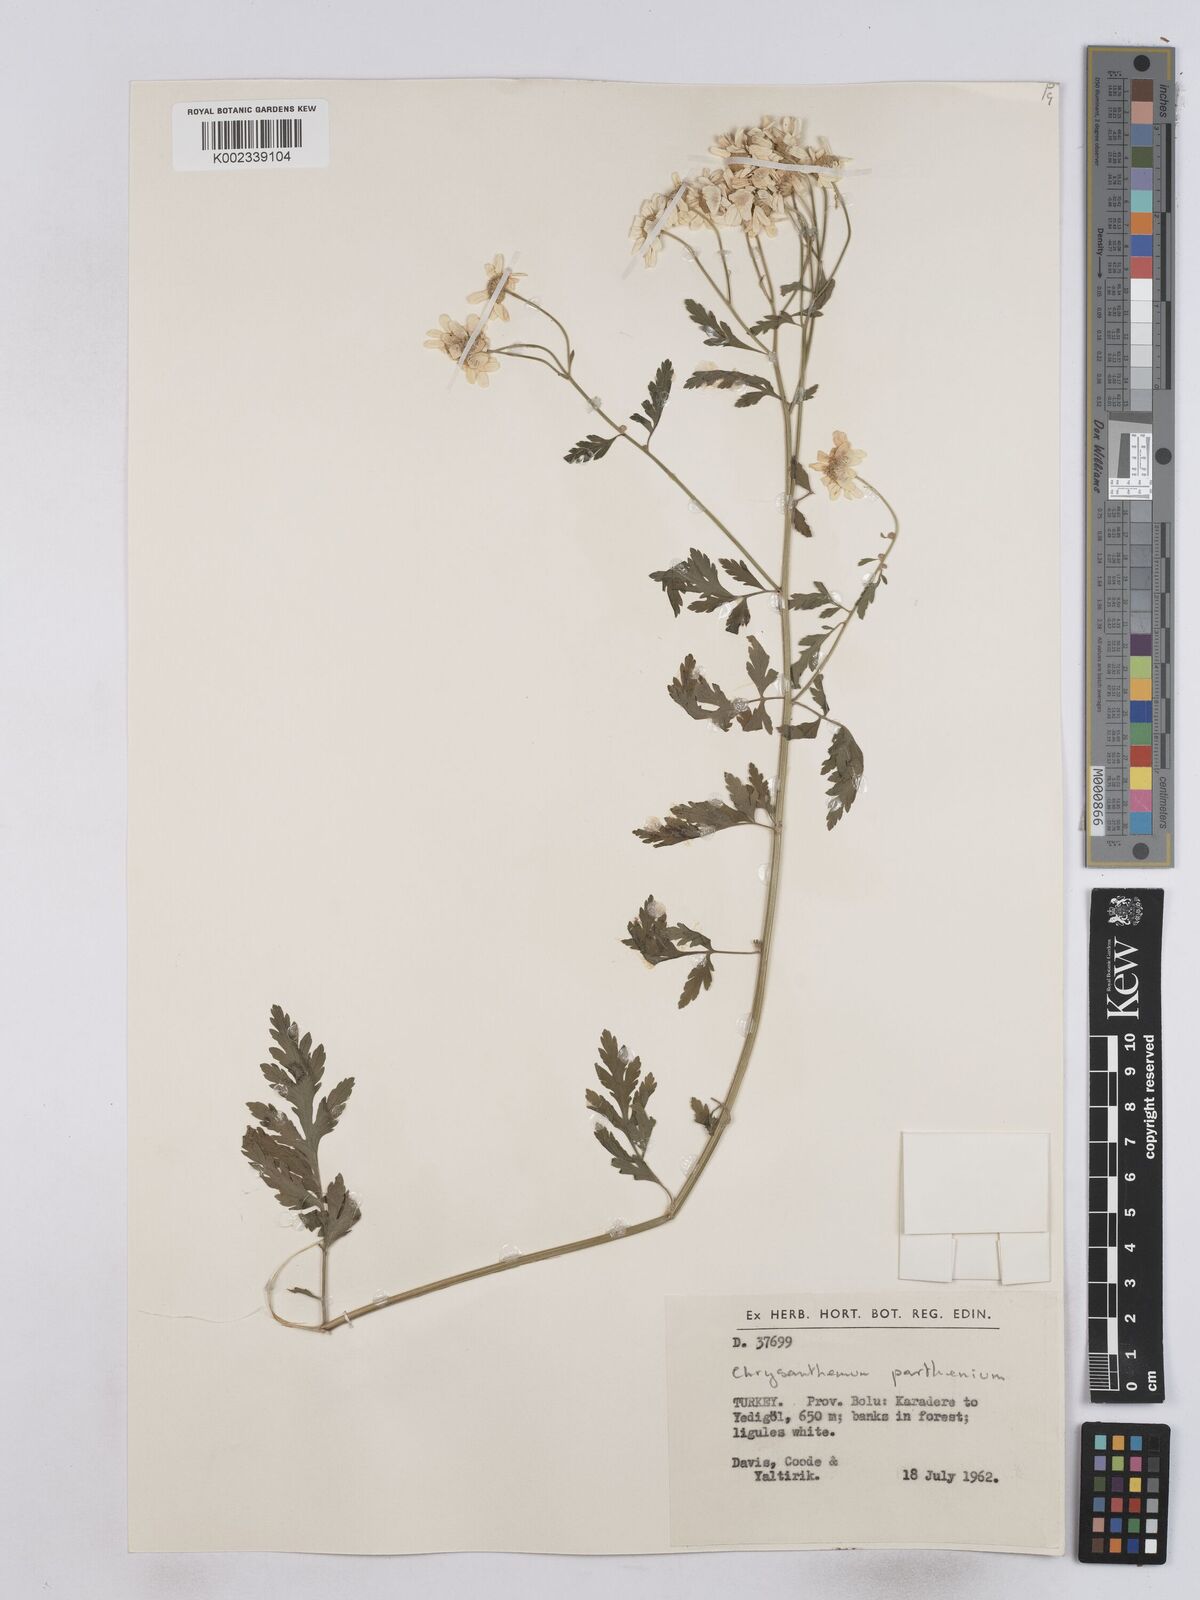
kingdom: Plantae
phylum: Tracheophyta
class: Magnoliopsida
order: Asterales
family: Asteraceae
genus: Tanacetum
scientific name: Tanacetum parthenium
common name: Feverfew
